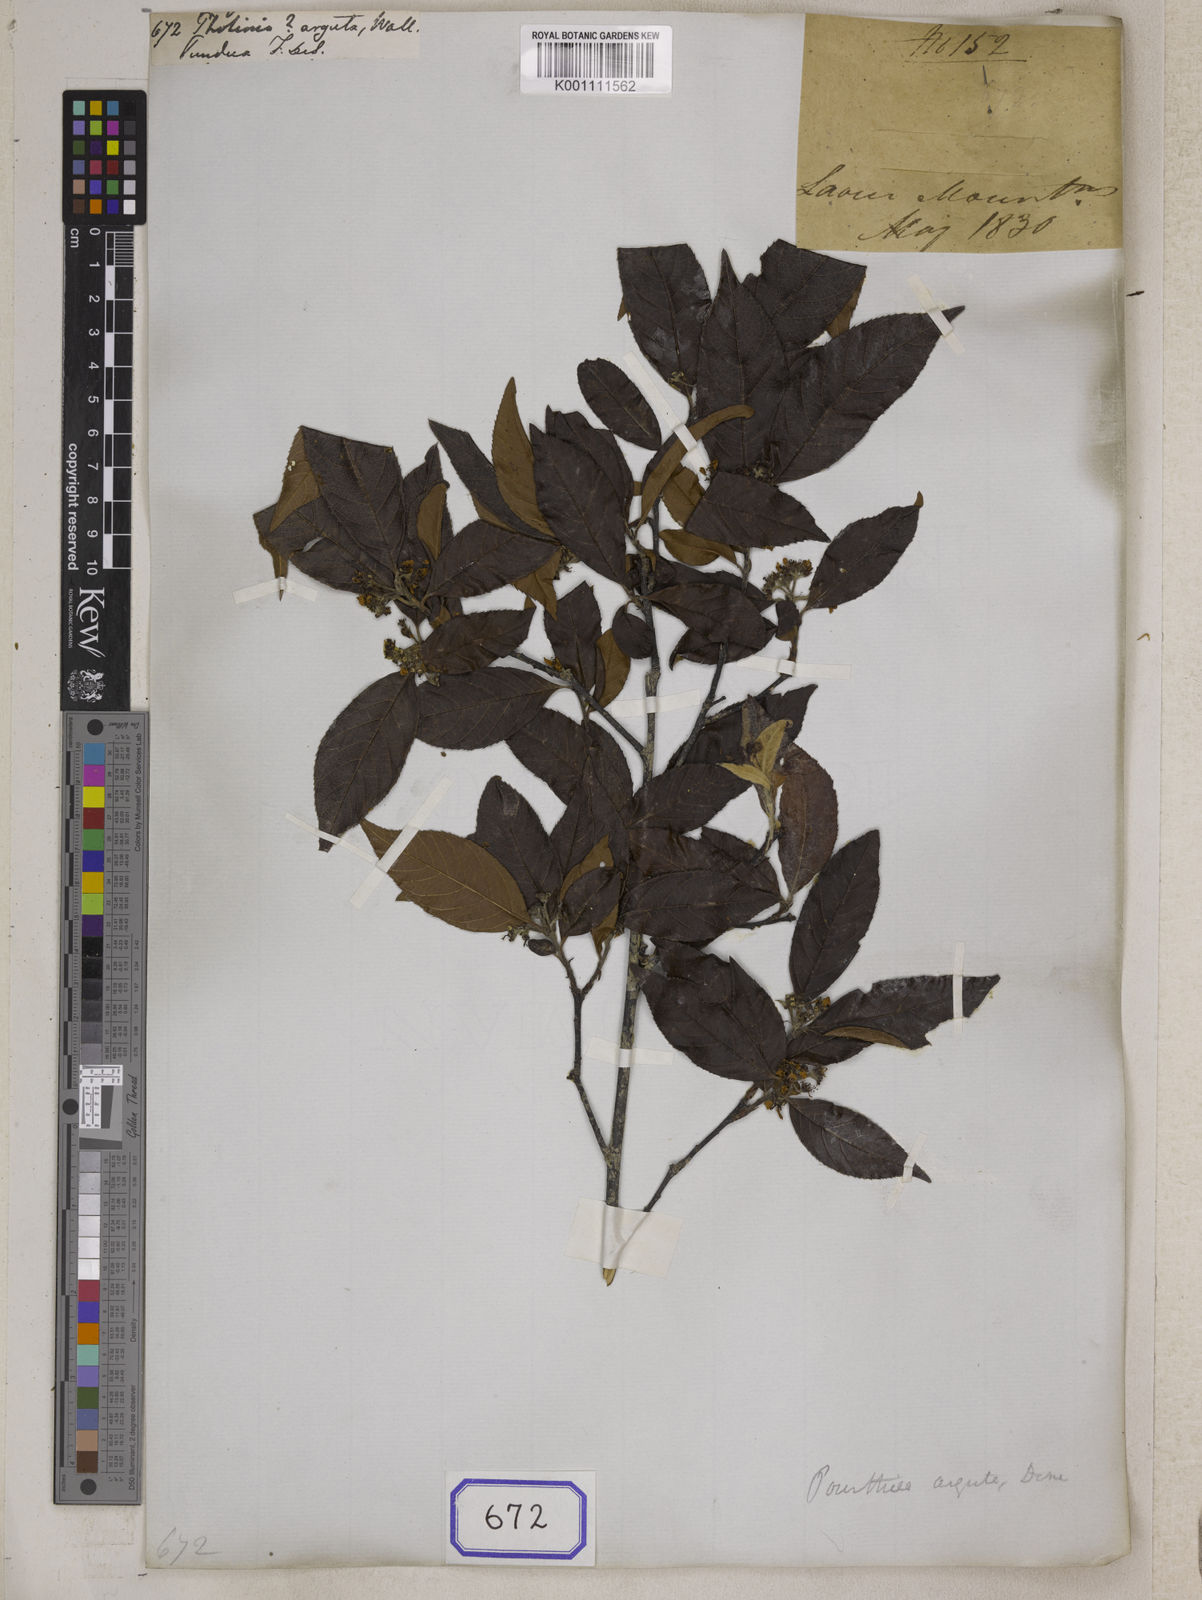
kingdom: Plantae
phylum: Tracheophyta
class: Magnoliopsida
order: Rosales
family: Rosaceae
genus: Photinia
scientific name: Photinia
